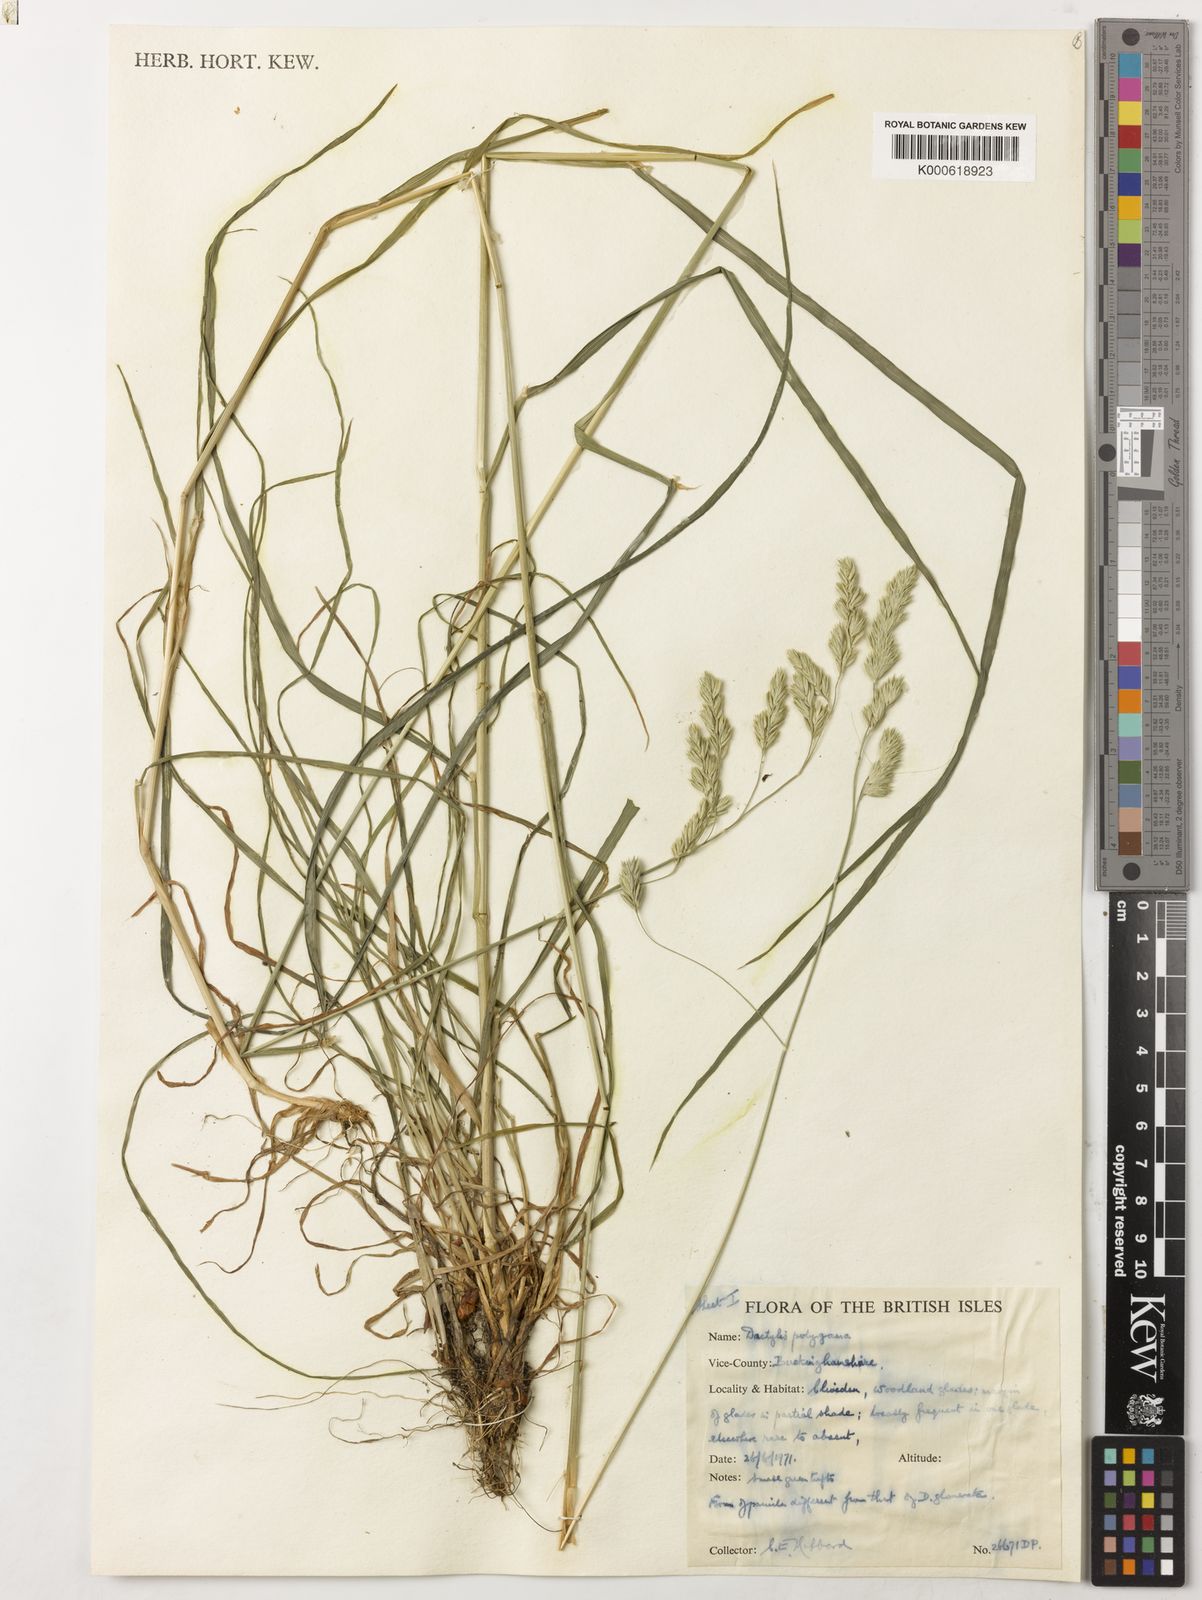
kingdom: Plantae
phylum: Tracheophyta
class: Liliopsida
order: Poales
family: Poaceae
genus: Dactylis
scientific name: Dactylis glomerata
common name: Orchardgrass
